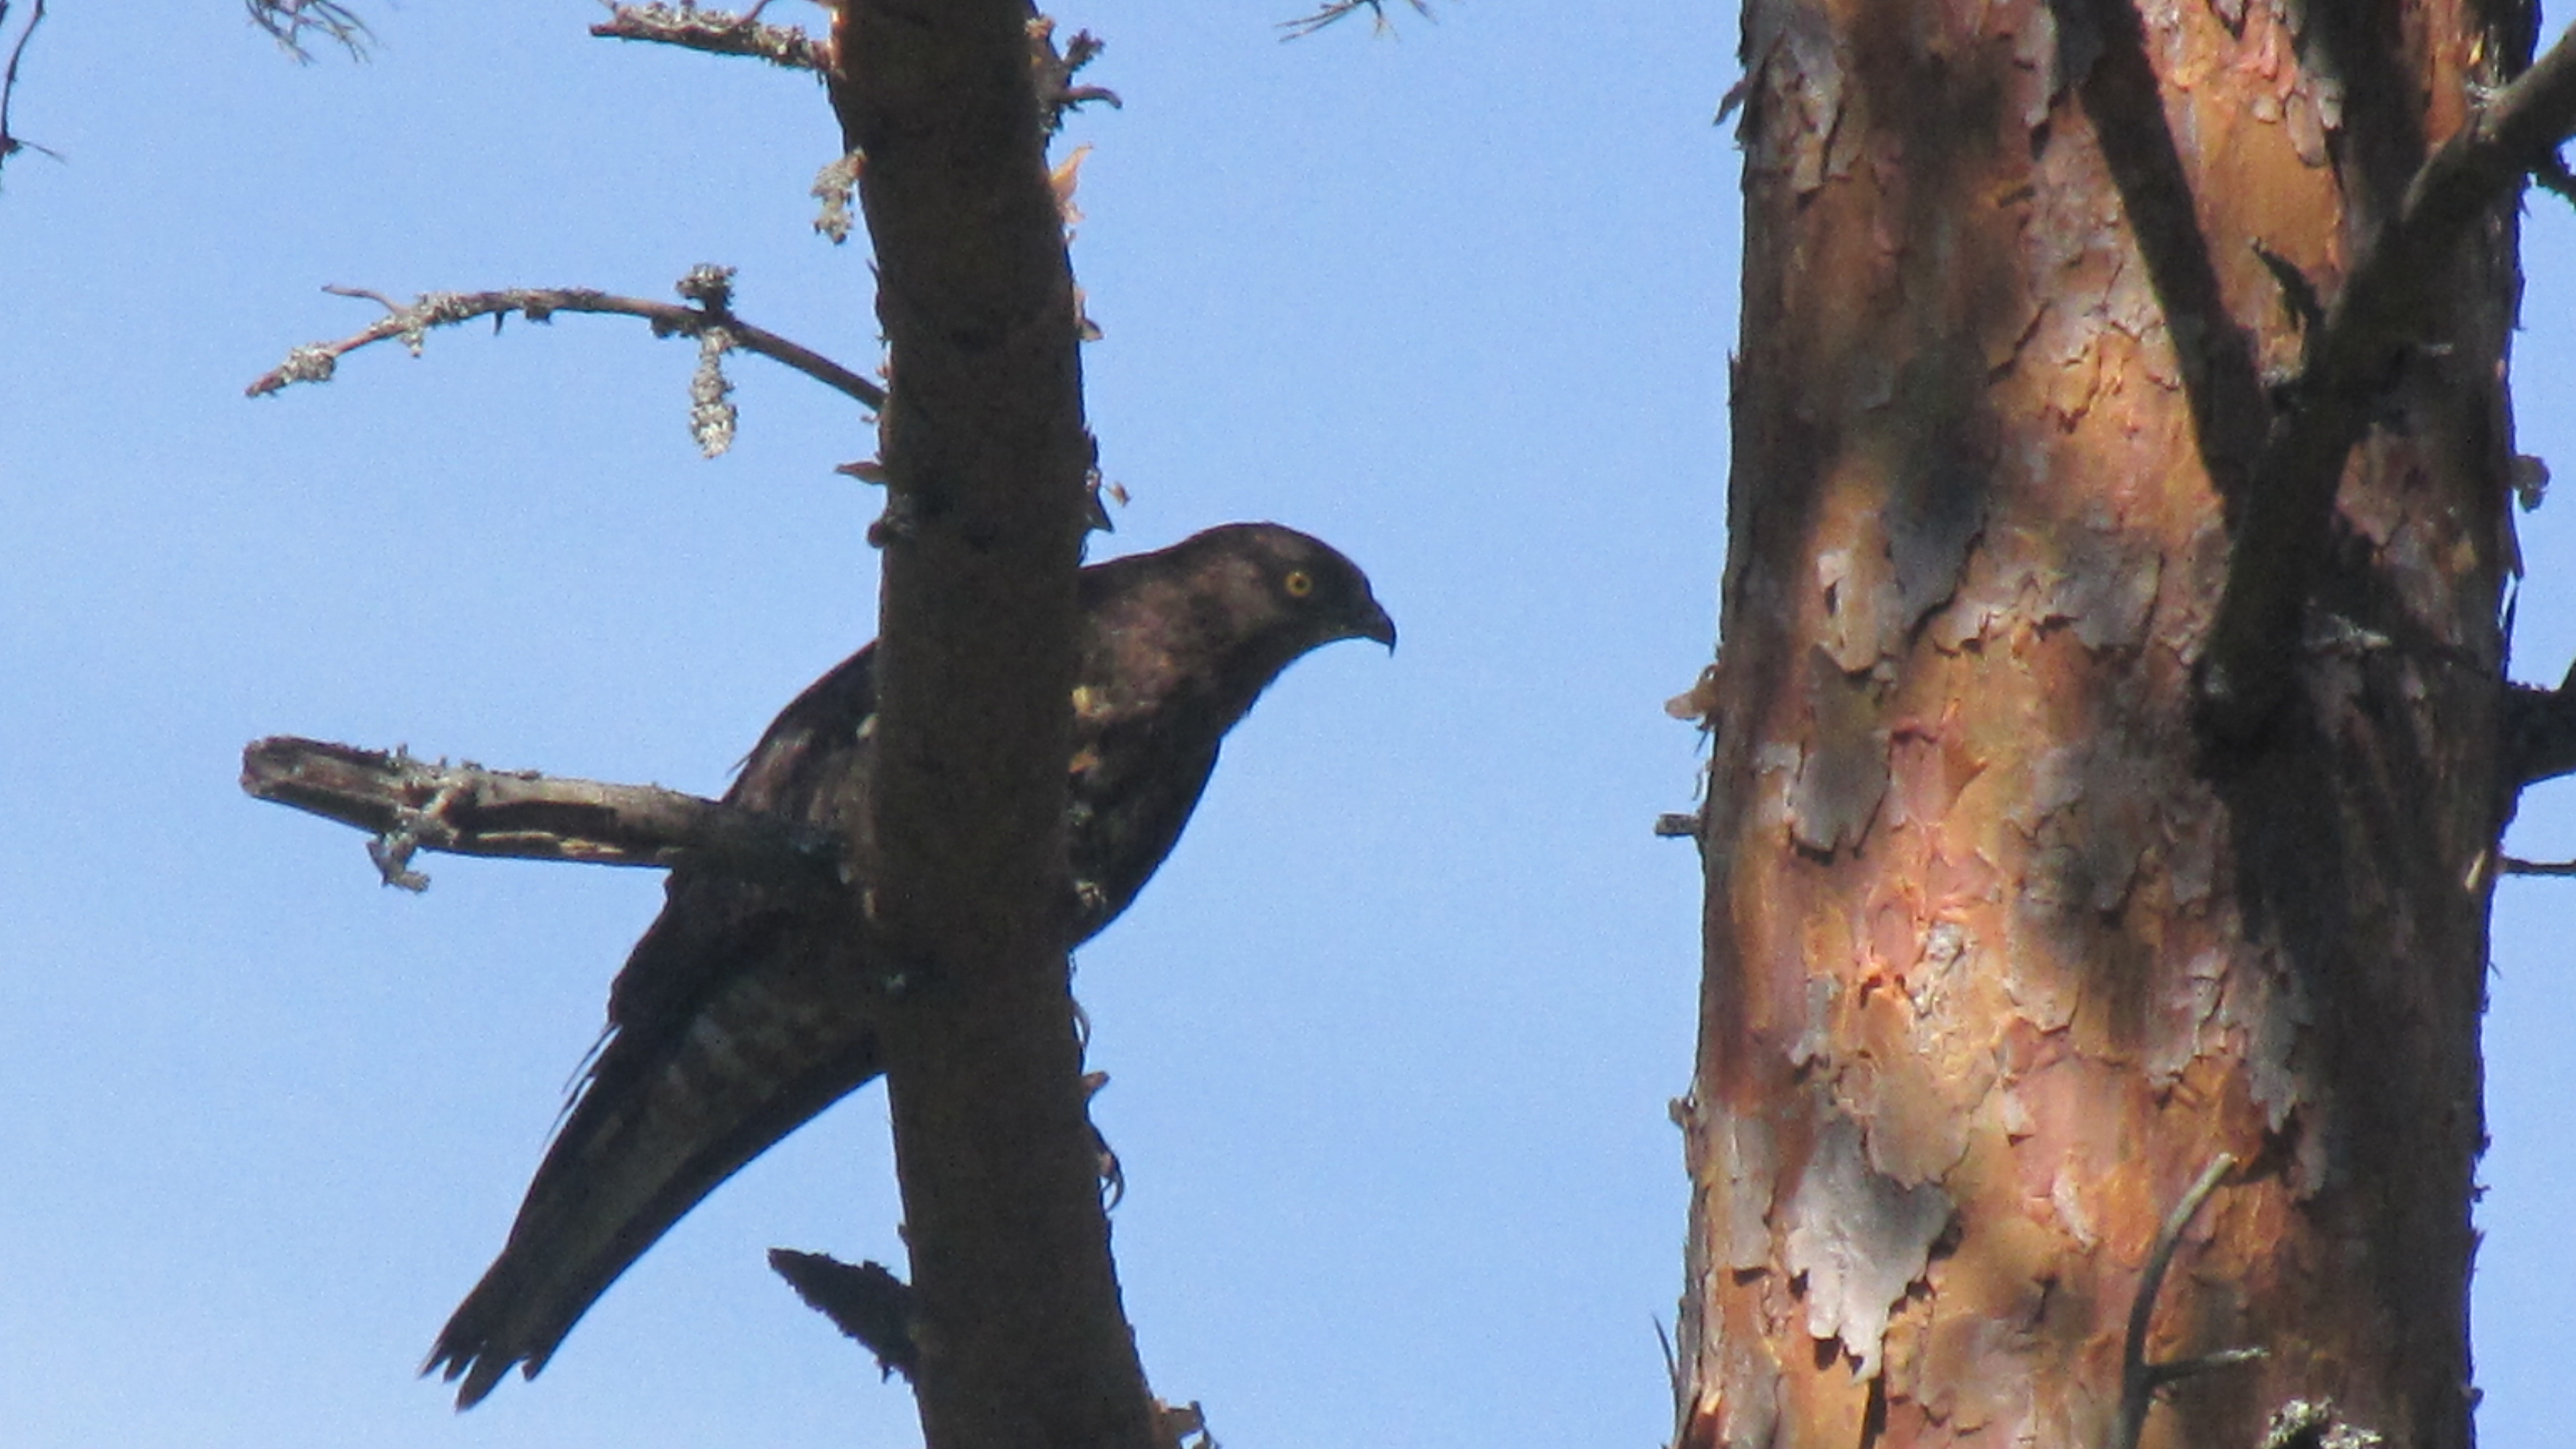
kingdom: Animalia
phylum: Chordata
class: Aves
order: Accipitriformes
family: Accipitridae
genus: Pernis
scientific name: Pernis apivorus
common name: European honey buzzard
